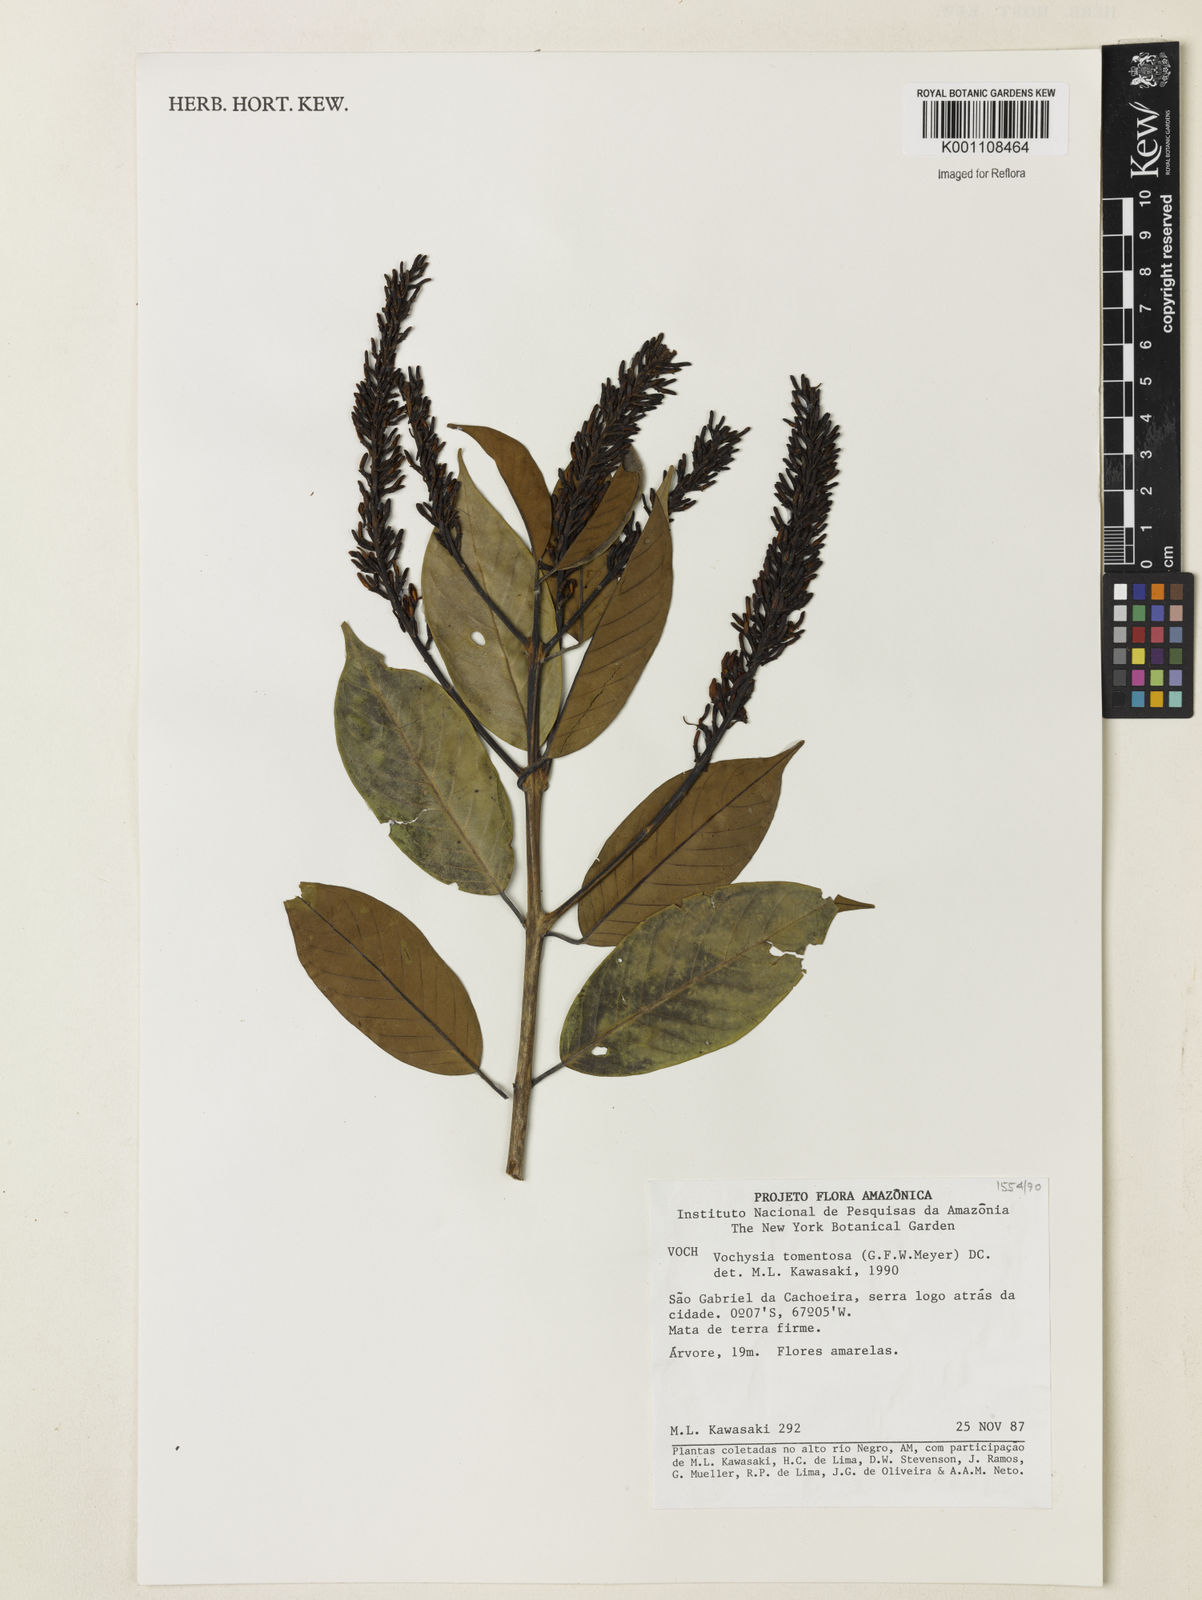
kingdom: Plantae
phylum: Tracheophyta
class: Magnoliopsida
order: Myrtales
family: Vochysiaceae
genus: Vochysia
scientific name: Vochysia tomentosa
